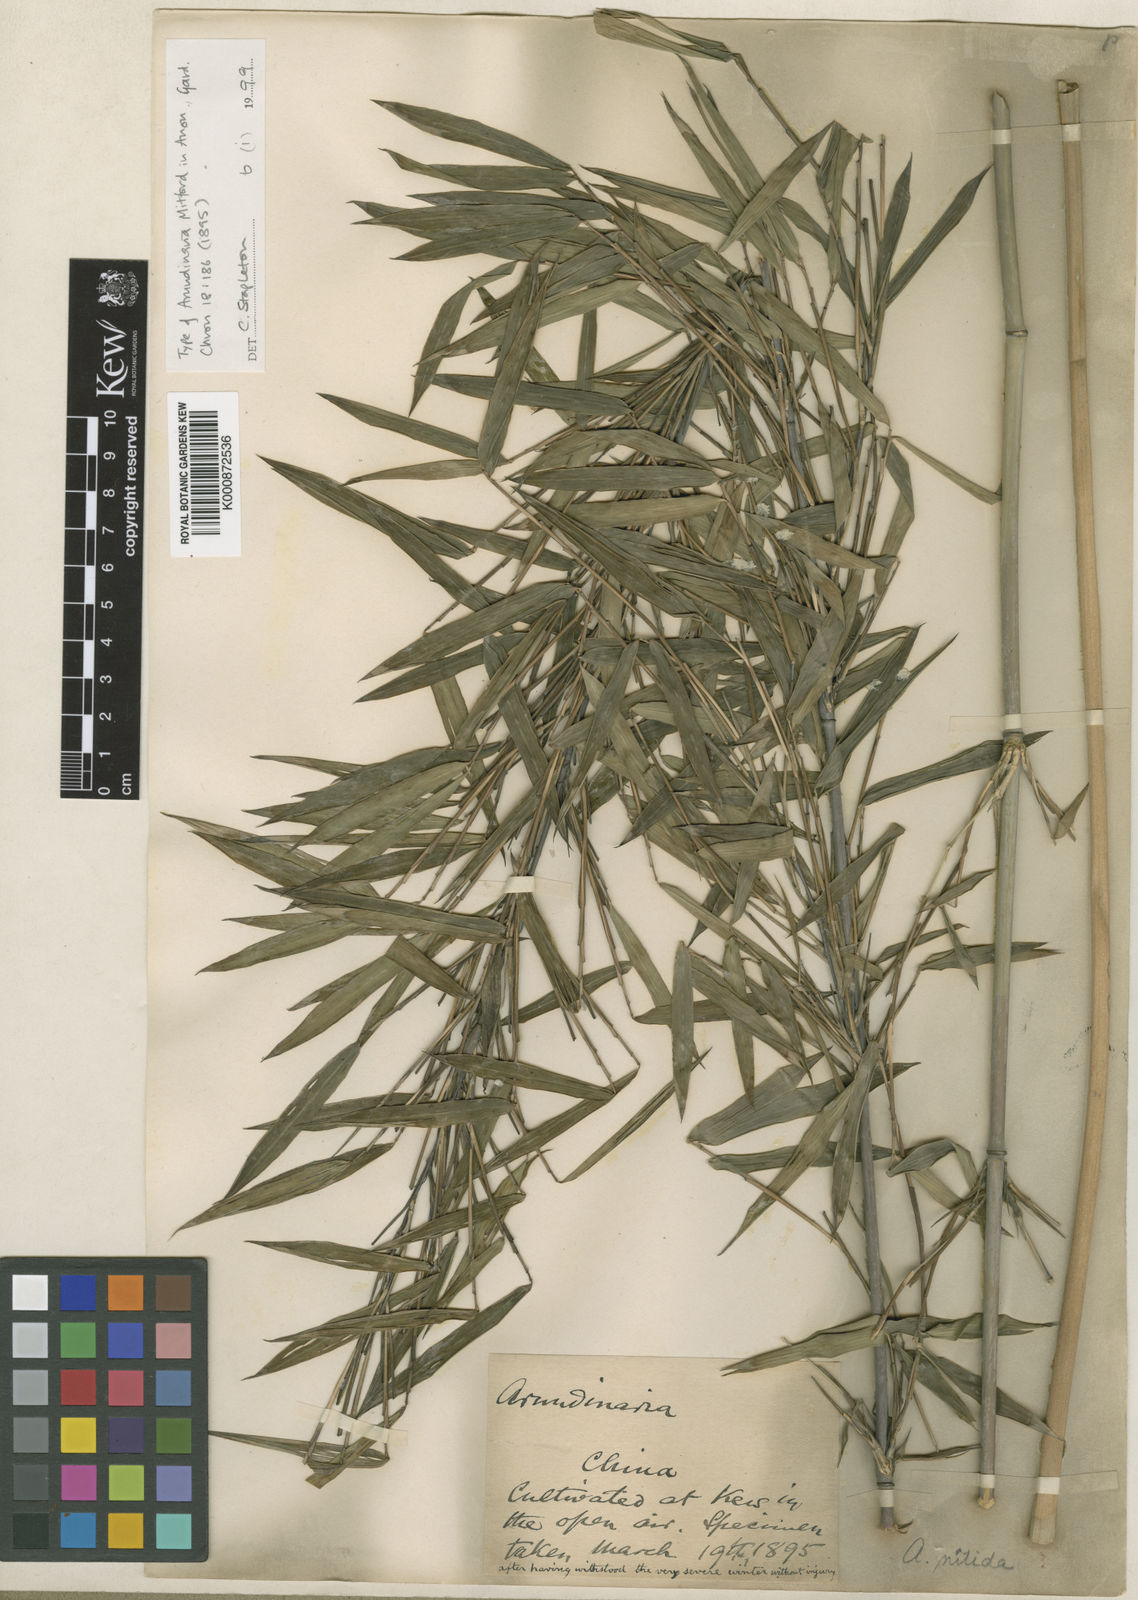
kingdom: Plantae
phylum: Tracheophyta
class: Liliopsida
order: Poales
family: Poaceae
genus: Fargesia
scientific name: Fargesia nitida ex
